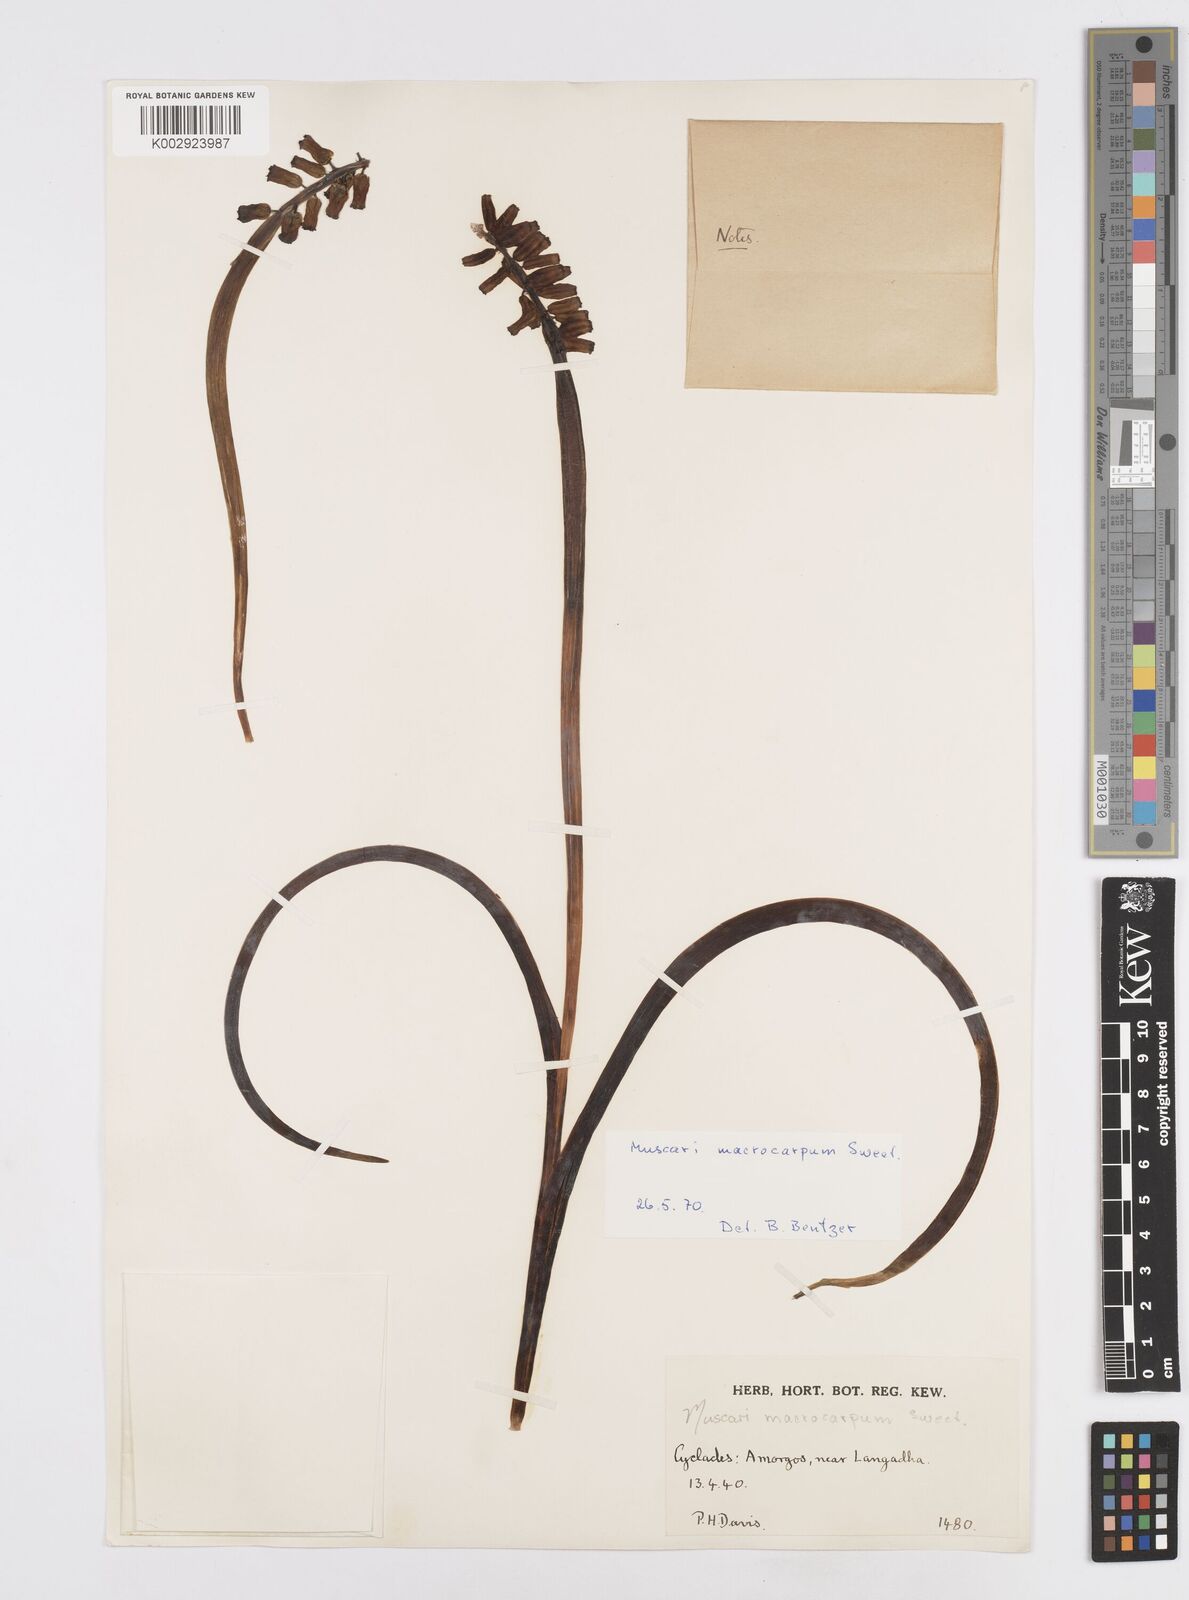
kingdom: Plantae
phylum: Tracheophyta
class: Liliopsida
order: Asparagales
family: Asparagaceae
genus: Muscarimia
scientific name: Muscarimia macrocarpa
